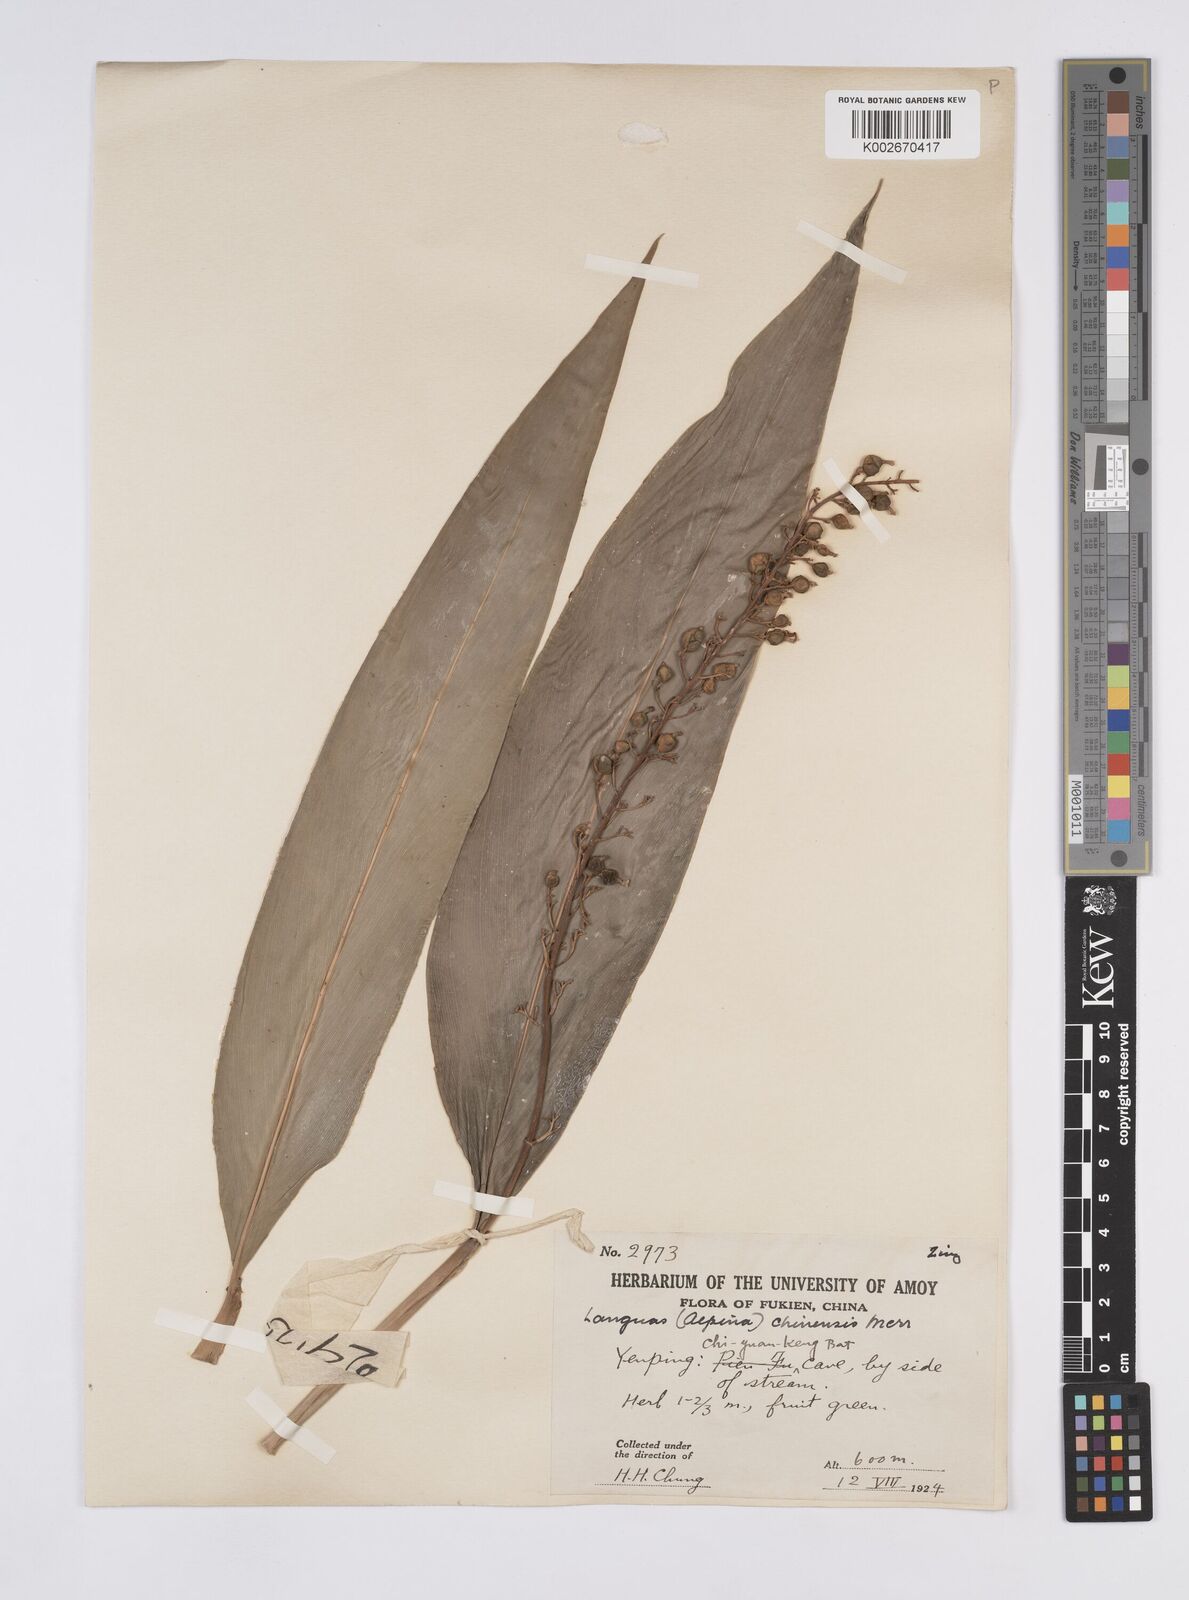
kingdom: Plantae
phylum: Tracheophyta
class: Liliopsida
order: Zingiberales
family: Zingiberaceae
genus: Alpinia
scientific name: Alpinia chinensis
